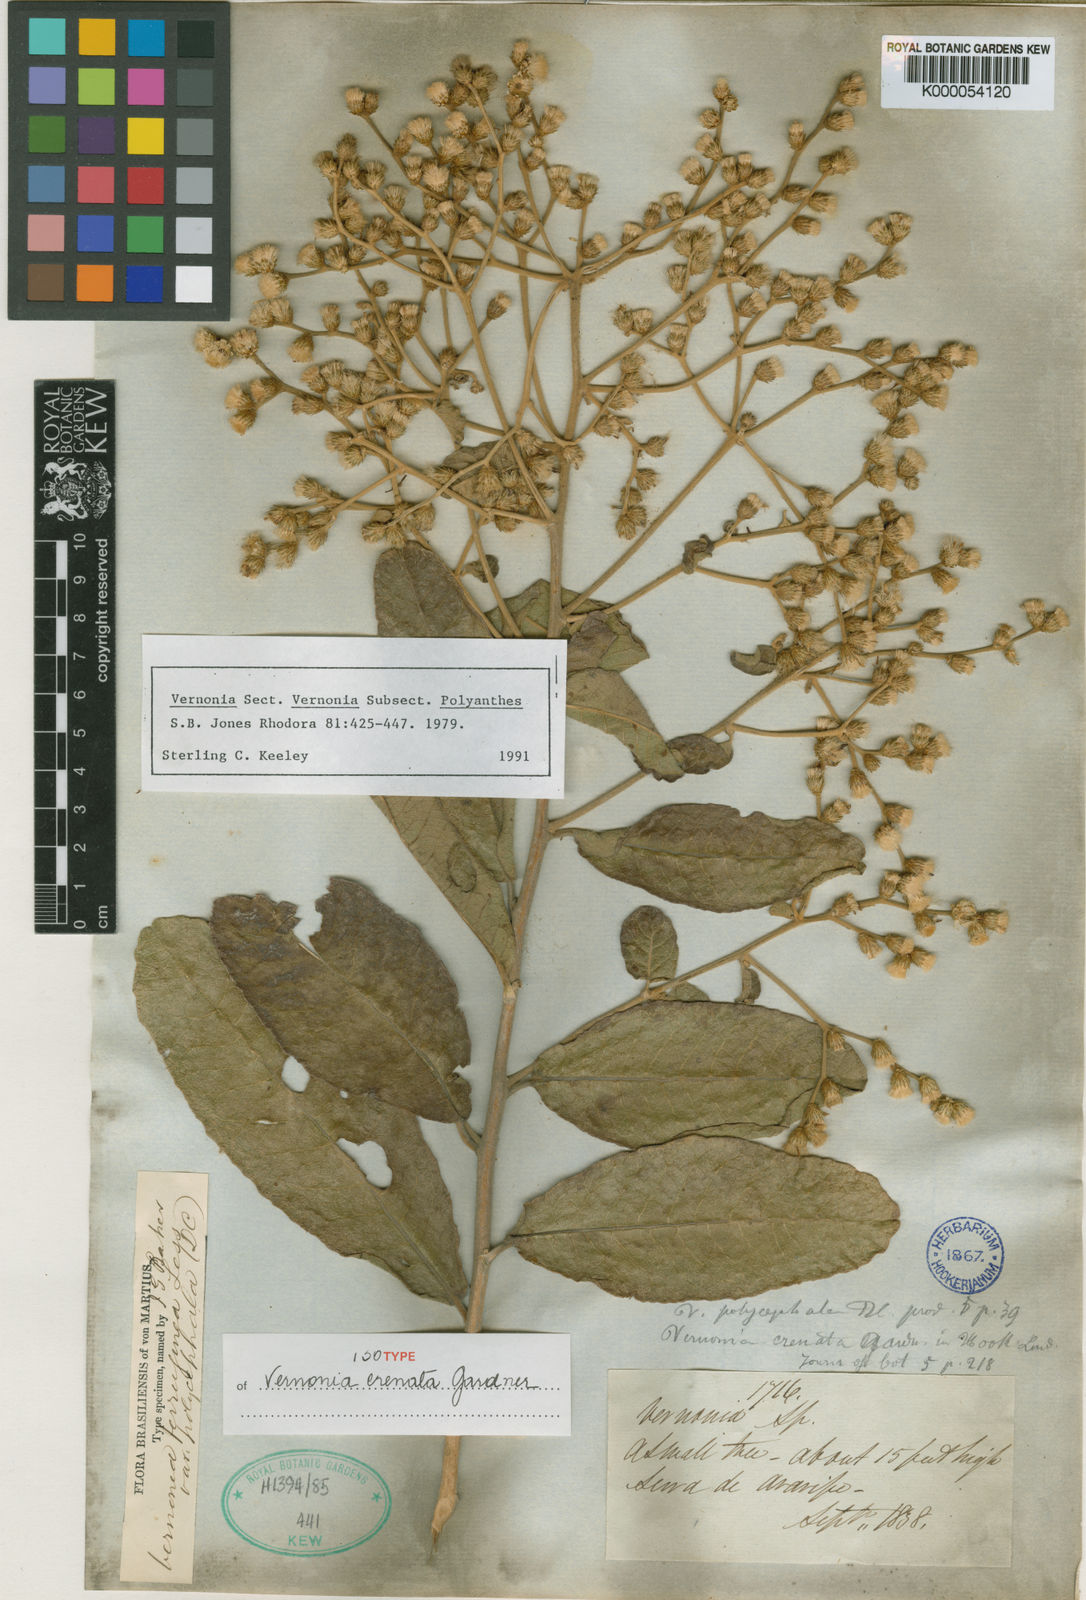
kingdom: Plantae
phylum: Tracheophyta
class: Magnoliopsida
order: Asterales
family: Asteraceae
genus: Vernonanthura
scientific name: Vernonanthura ferruginea
